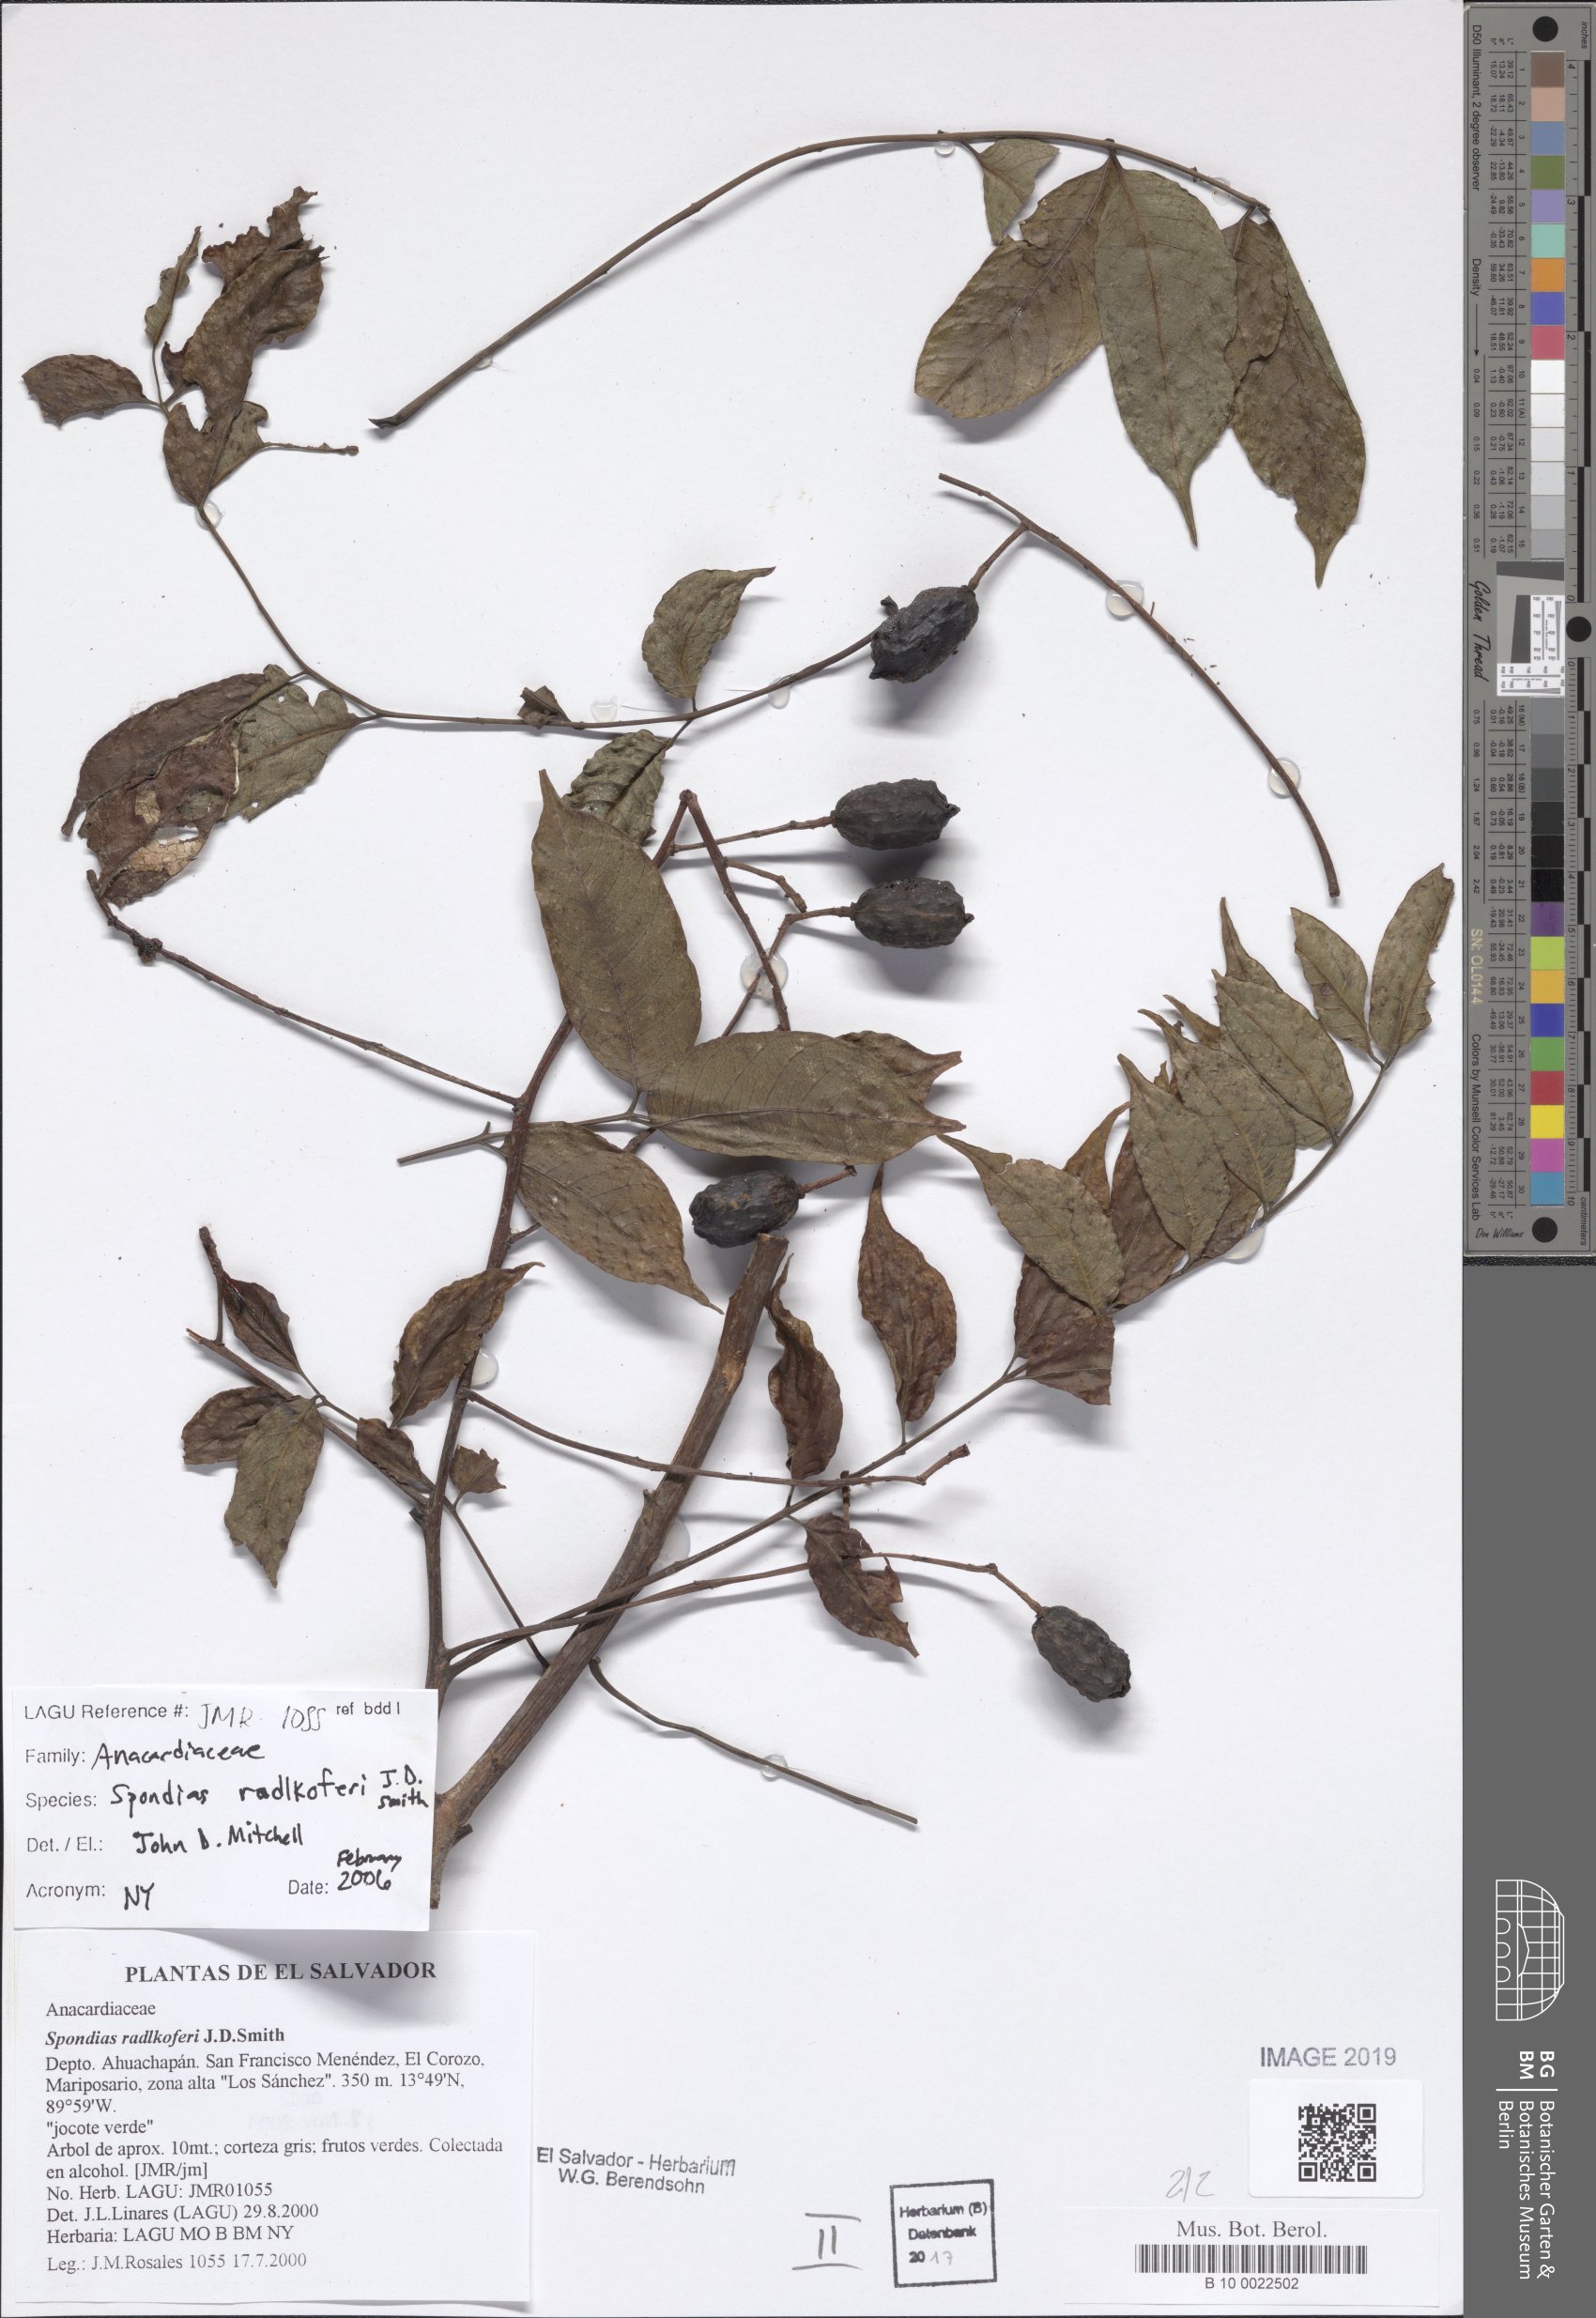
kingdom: Plantae
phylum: Tracheophyta
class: Magnoliopsida
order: Sapindales
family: Anacardiaceae
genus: Spondias
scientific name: Spondias radlkoferi
